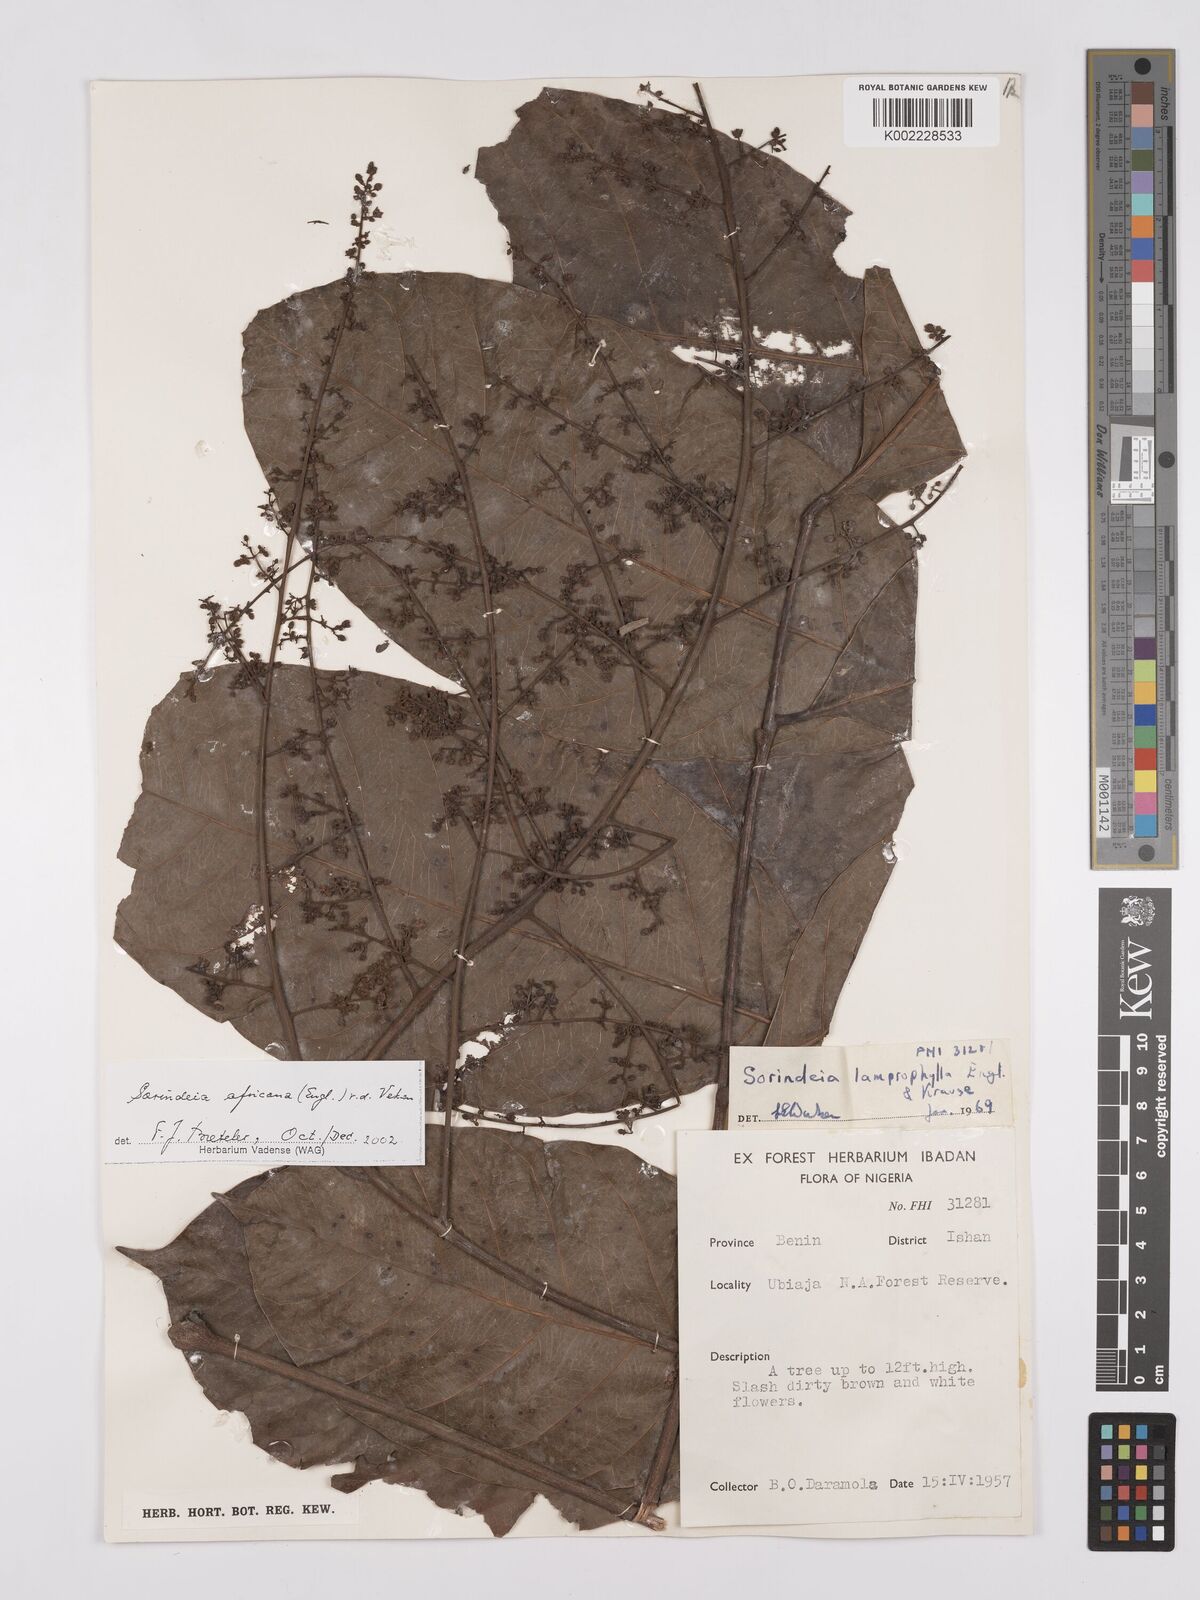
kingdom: Plantae
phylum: Tracheophyta
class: Magnoliopsida
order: Sapindales
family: Anacardiaceae
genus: Sorindeia
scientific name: Sorindeia africana
